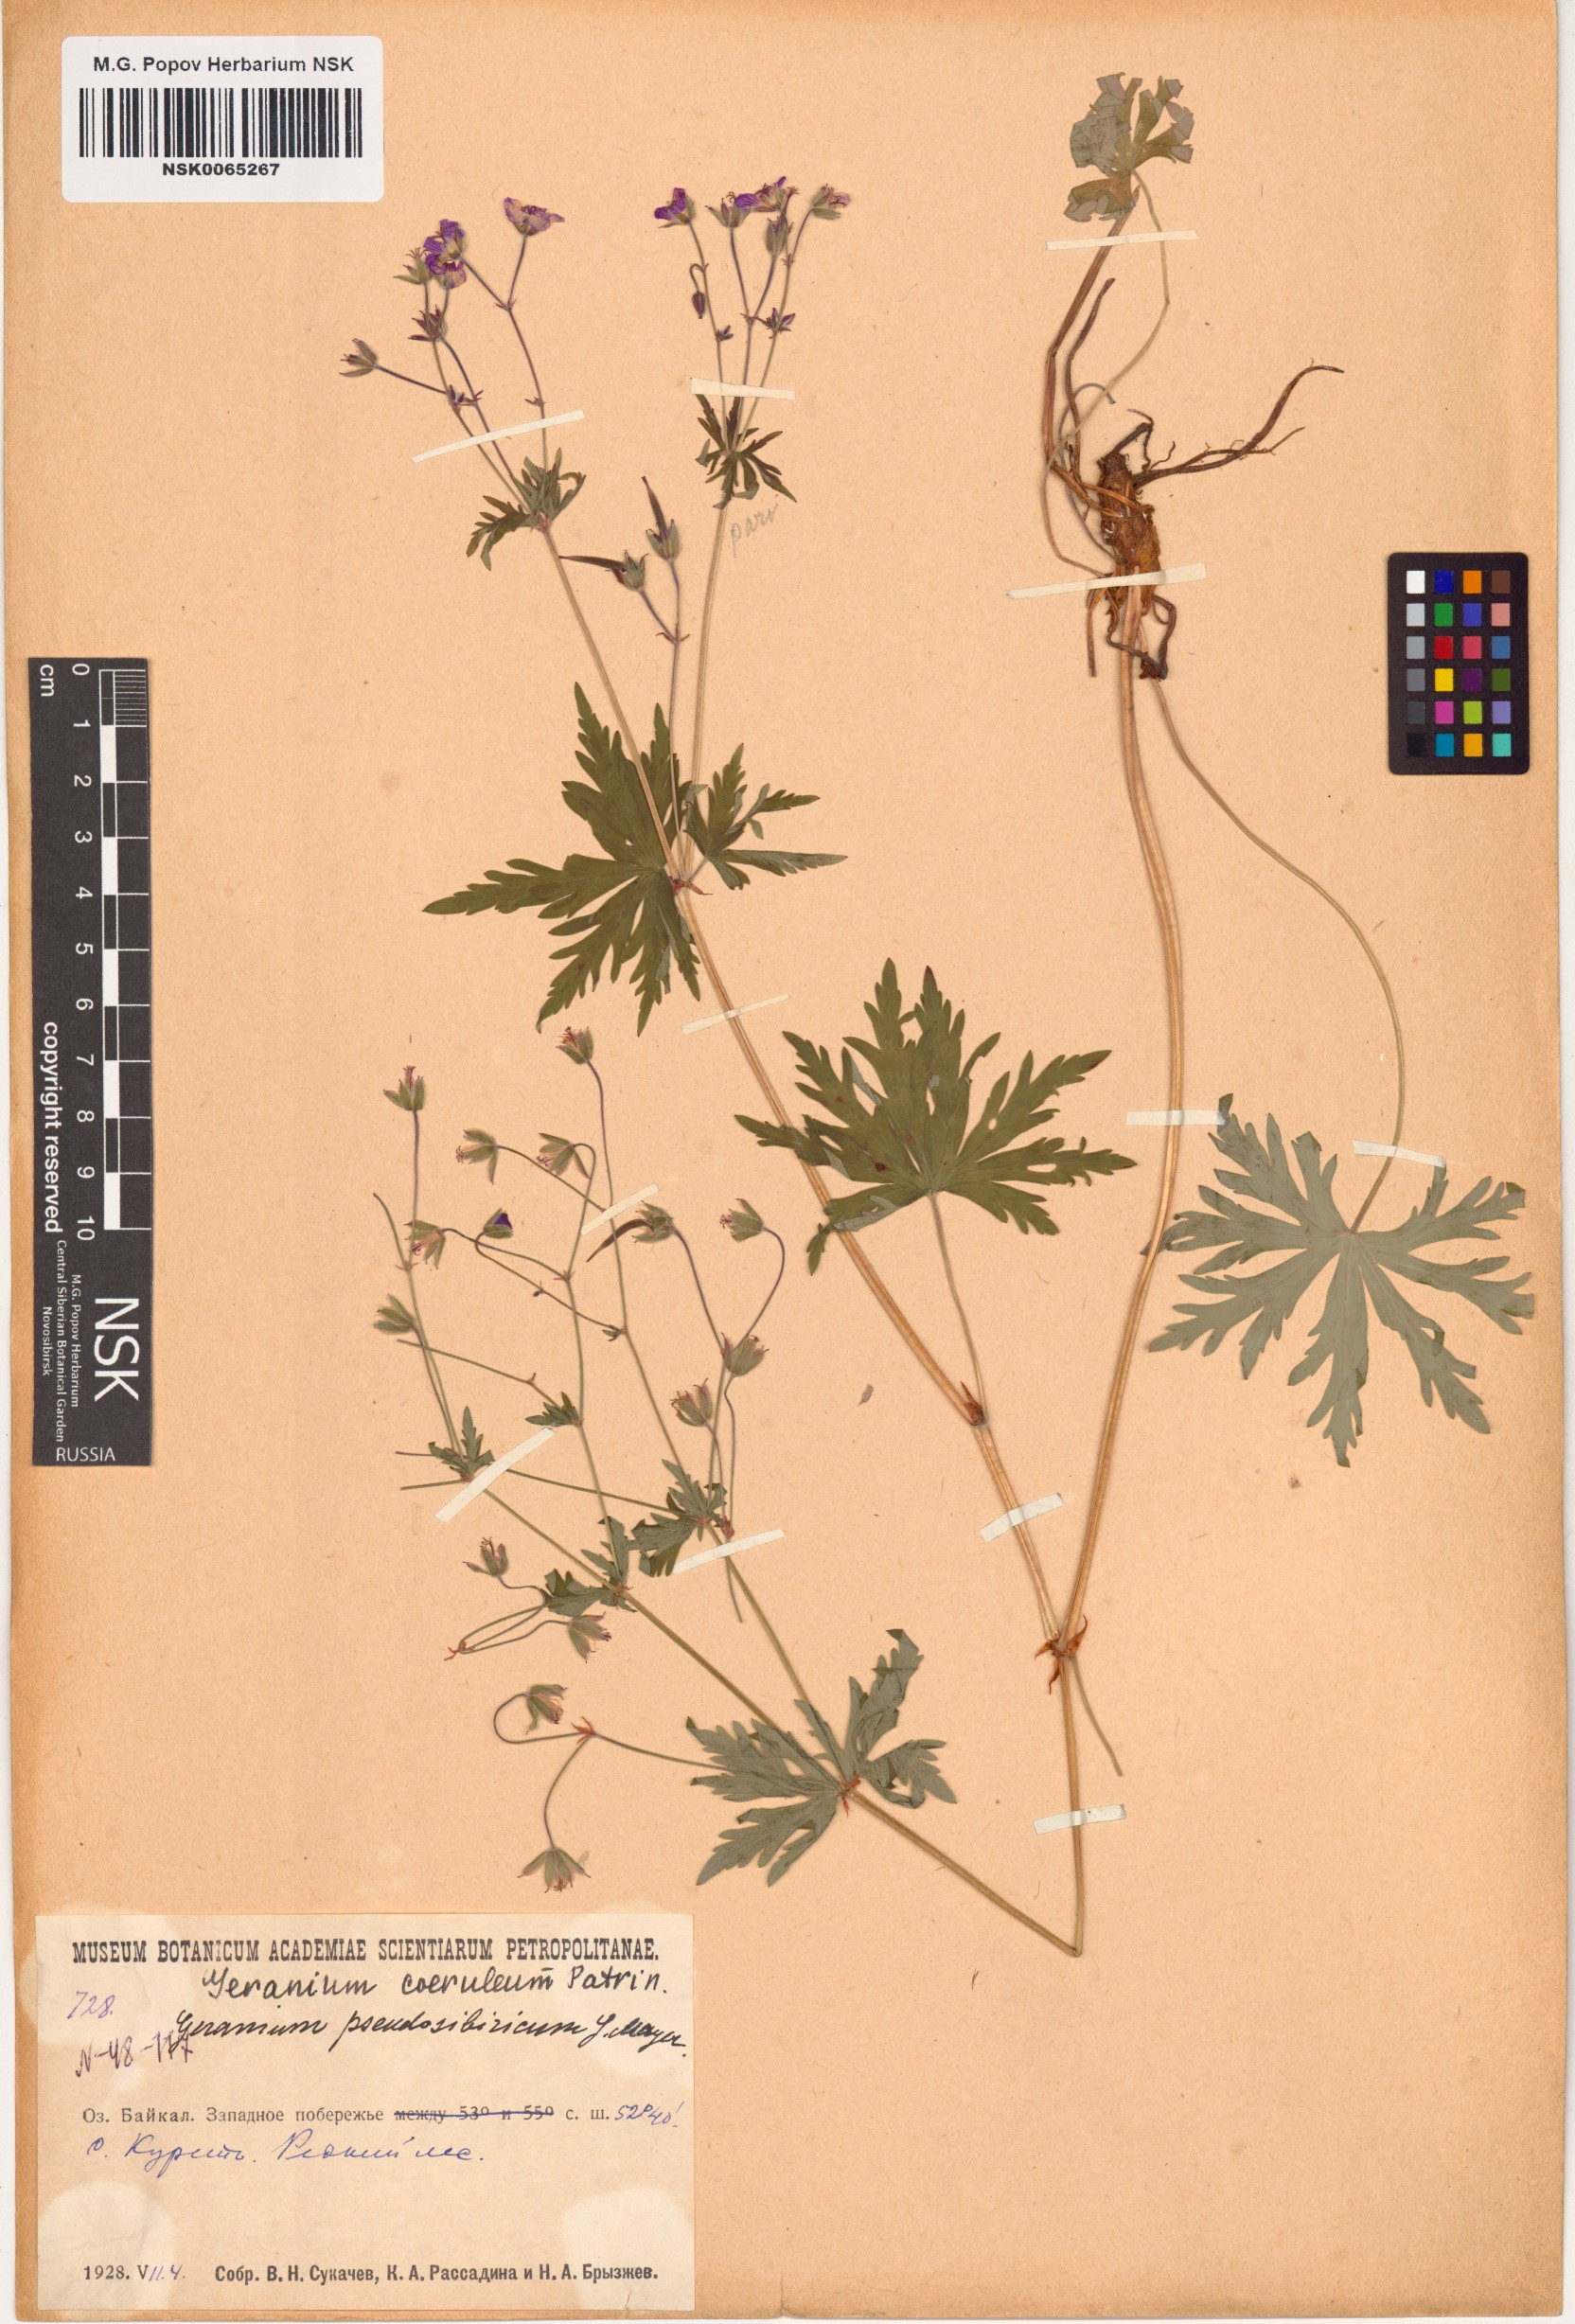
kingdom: Plantae
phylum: Tracheophyta
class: Magnoliopsida
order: Geraniales
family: Geraniaceae
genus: Geranium
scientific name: Geranium pseudosibiricum
